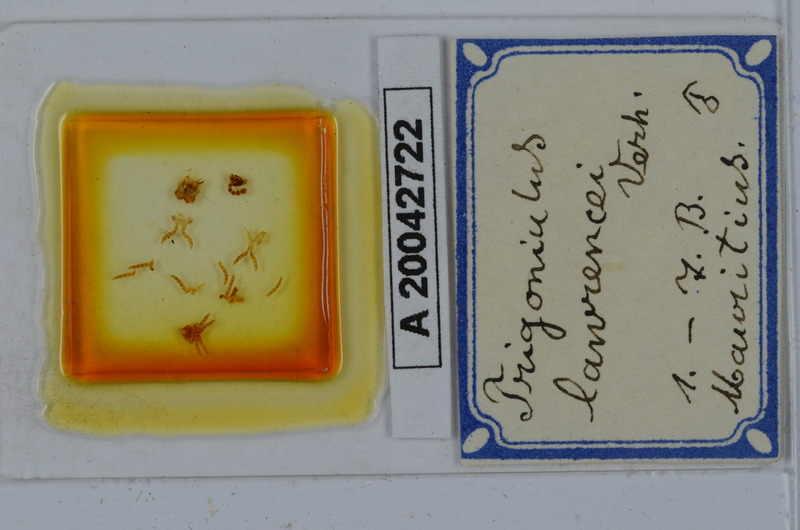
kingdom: Animalia
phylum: Arthropoda
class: Diplopoda
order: Spirobolida
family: Pachybolidae
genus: Leptogoniulus
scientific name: Leptogoniulus sorornus
